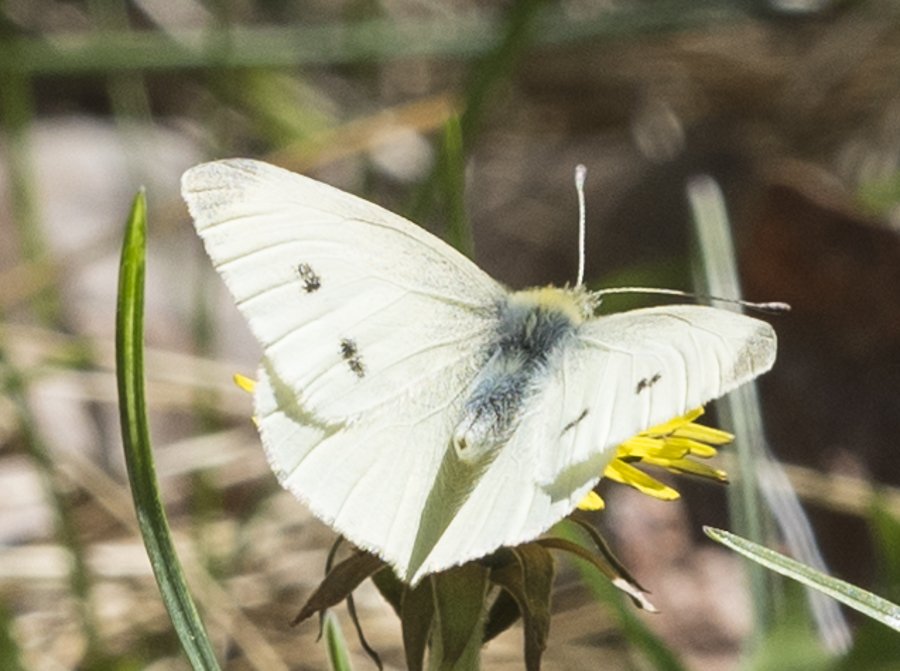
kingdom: Animalia
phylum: Arthropoda
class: Insecta
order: Lepidoptera
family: Pieridae
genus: Pieris
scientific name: Pieris rapae
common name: Cabbage White
